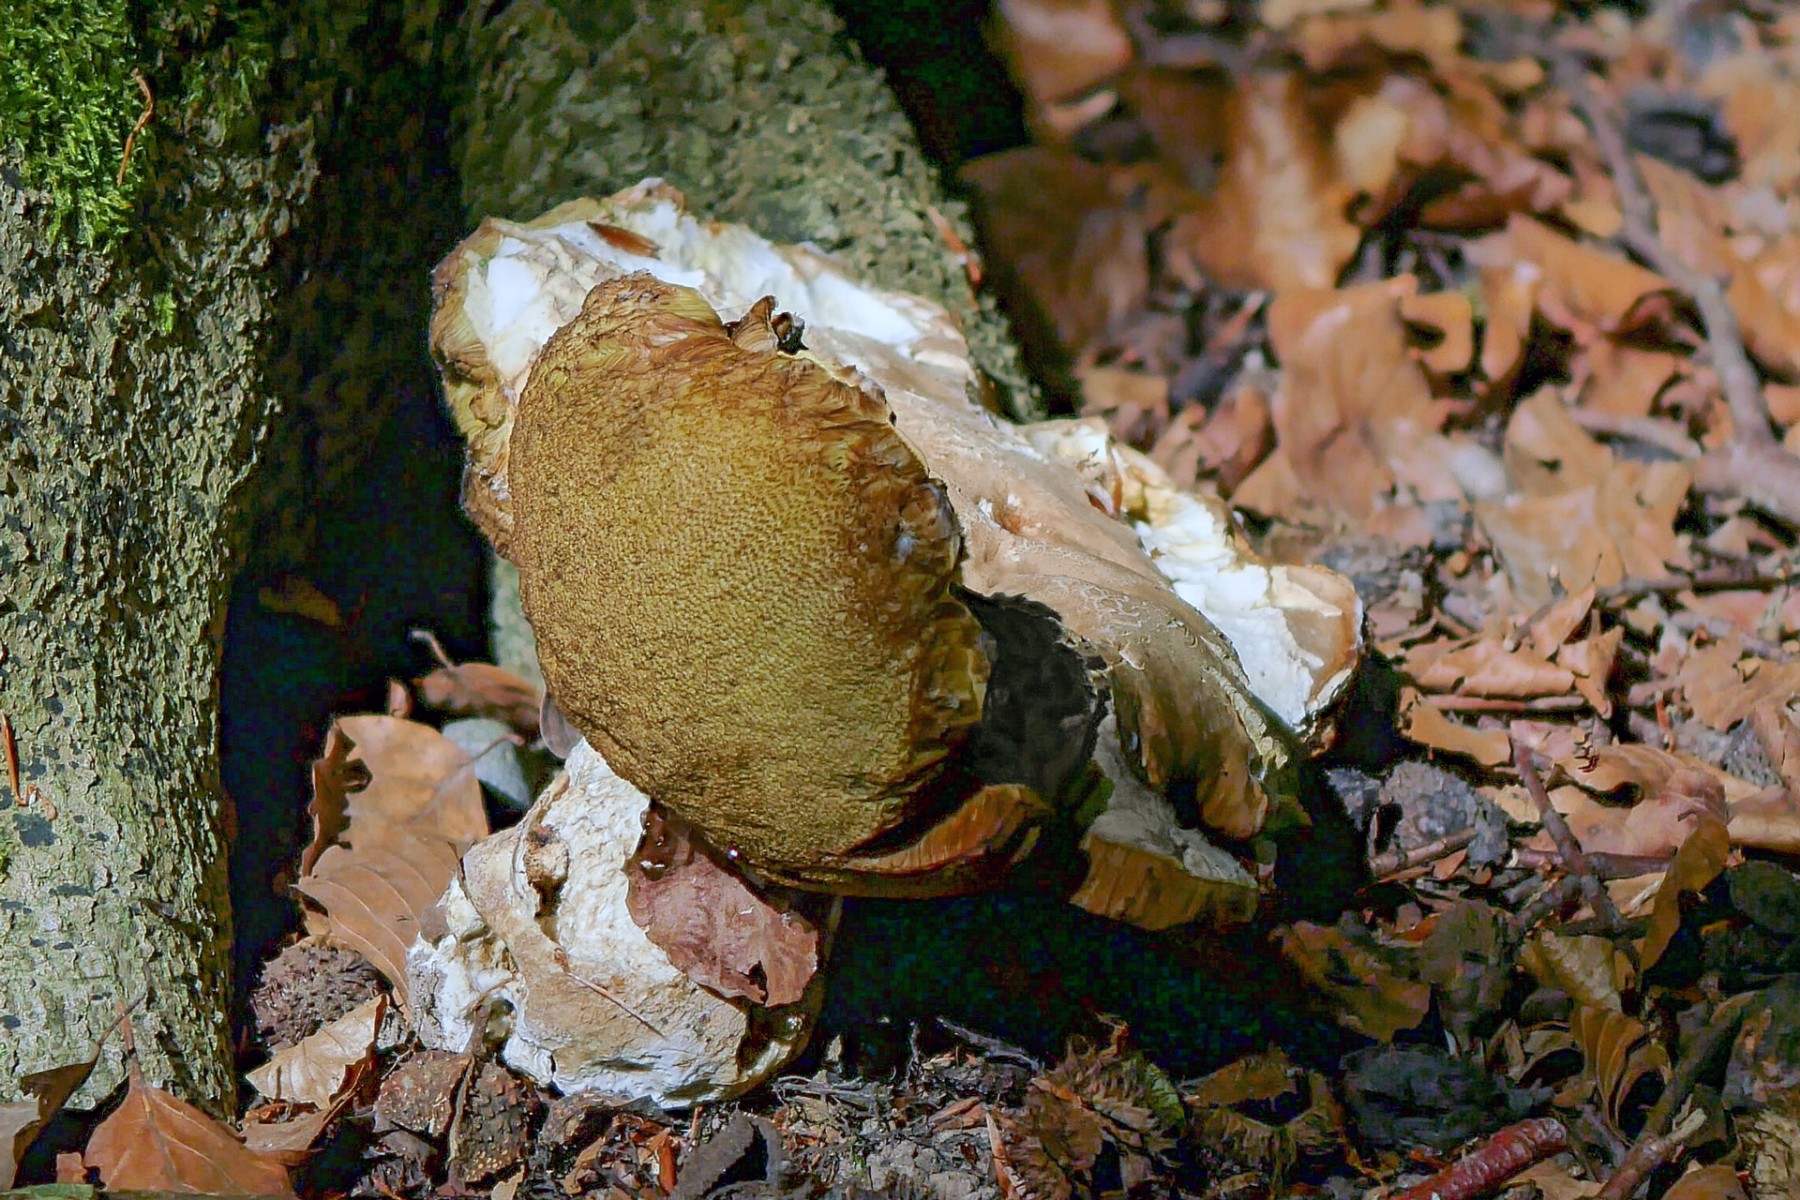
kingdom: Fungi
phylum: Basidiomycota
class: Agaricomycetes
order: Boletales
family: Boletaceae
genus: Boletus
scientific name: Boletus reticulatus
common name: sommer-rørhat
